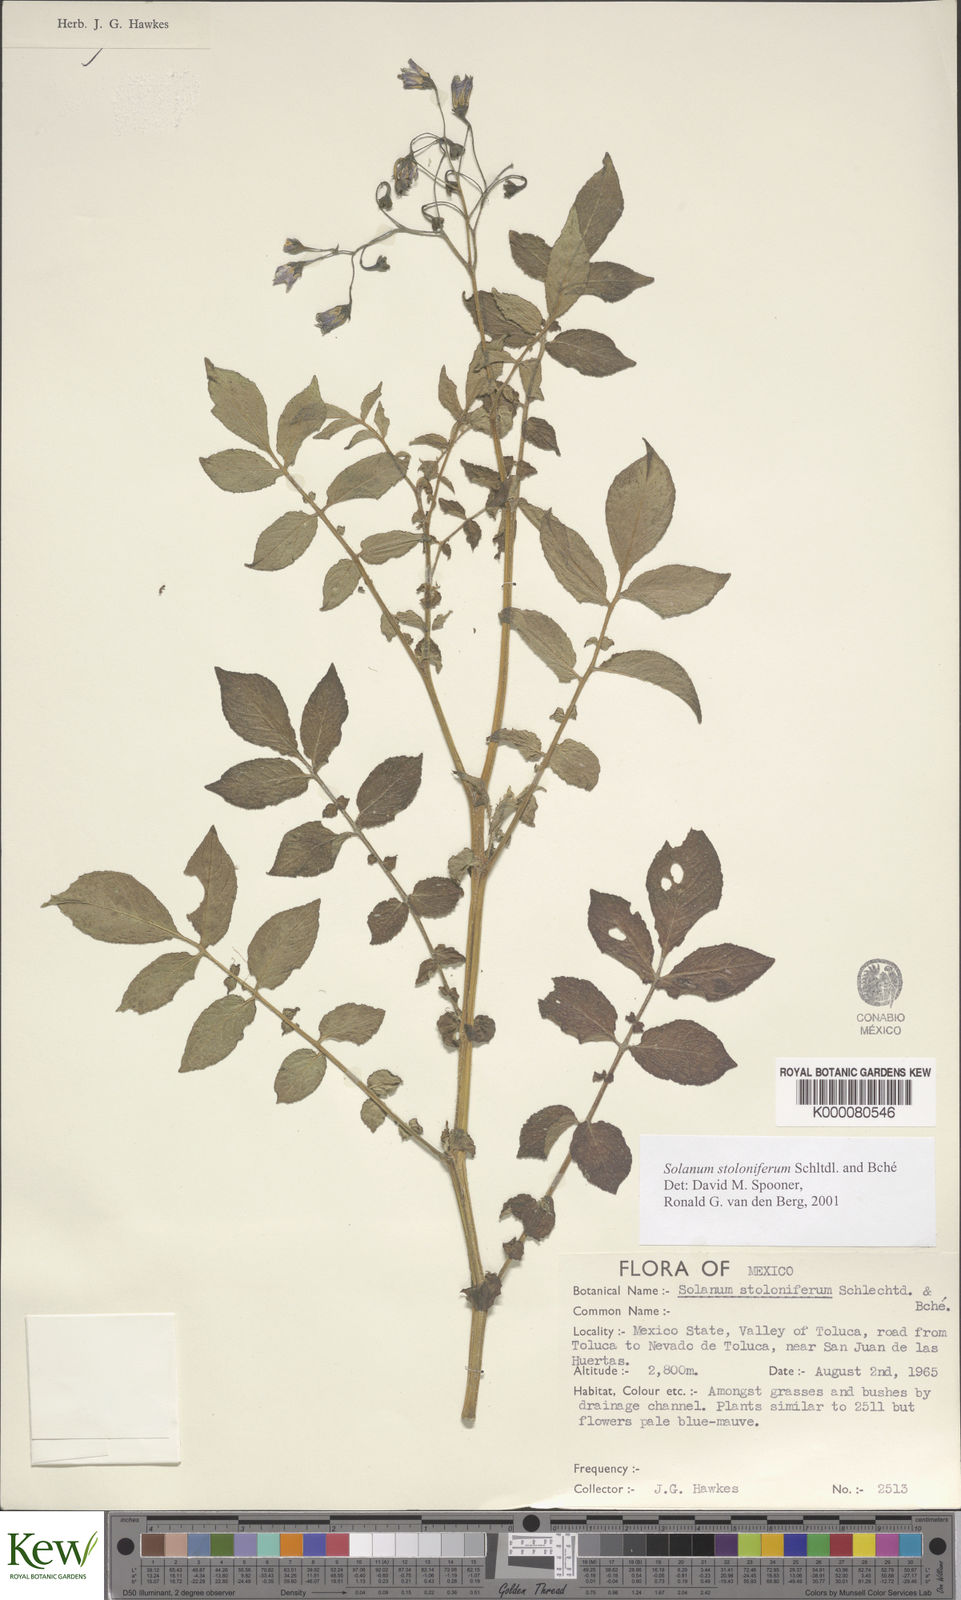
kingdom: Plantae
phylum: Tracheophyta
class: Magnoliopsida
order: Solanales
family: Solanaceae
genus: Solanum
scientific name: Solanum stoloniferum
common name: Fendler's nighshade
